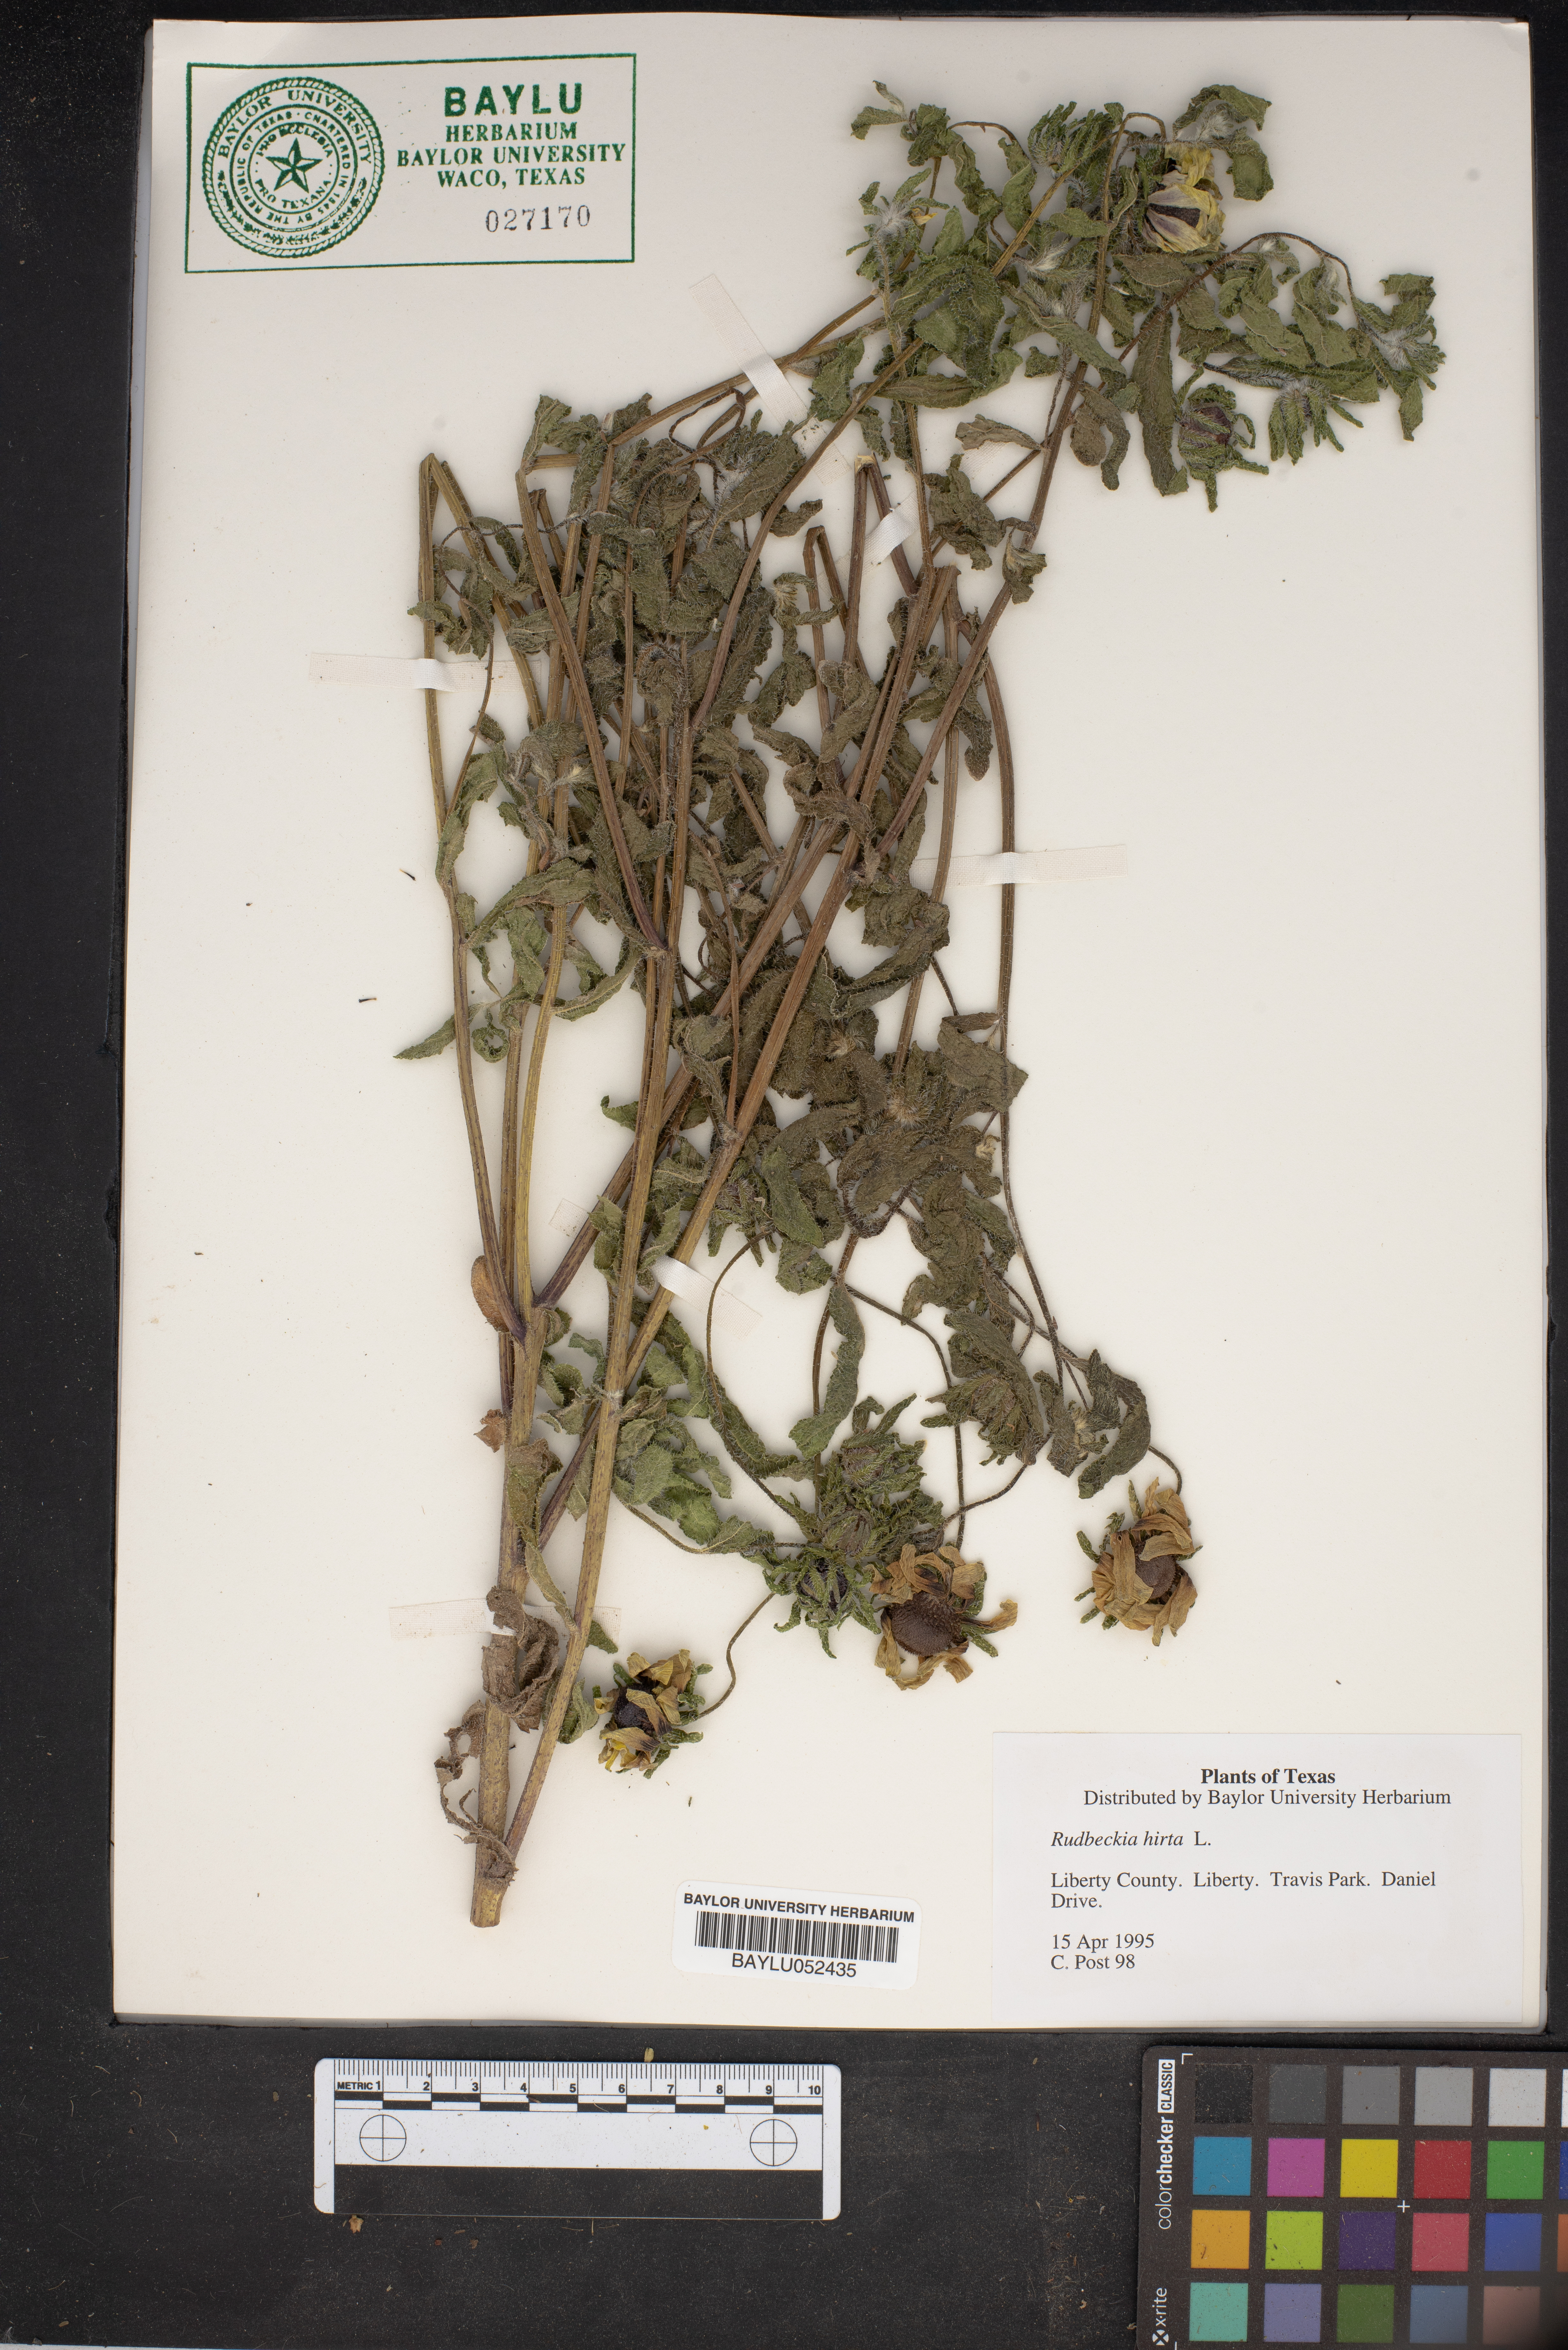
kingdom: Plantae
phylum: Tracheophyta
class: Magnoliopsida
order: Asterales
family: Asteraceae
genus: Rudbeckia
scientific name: Rudbeckia hirta
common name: Black-eyed-susan
